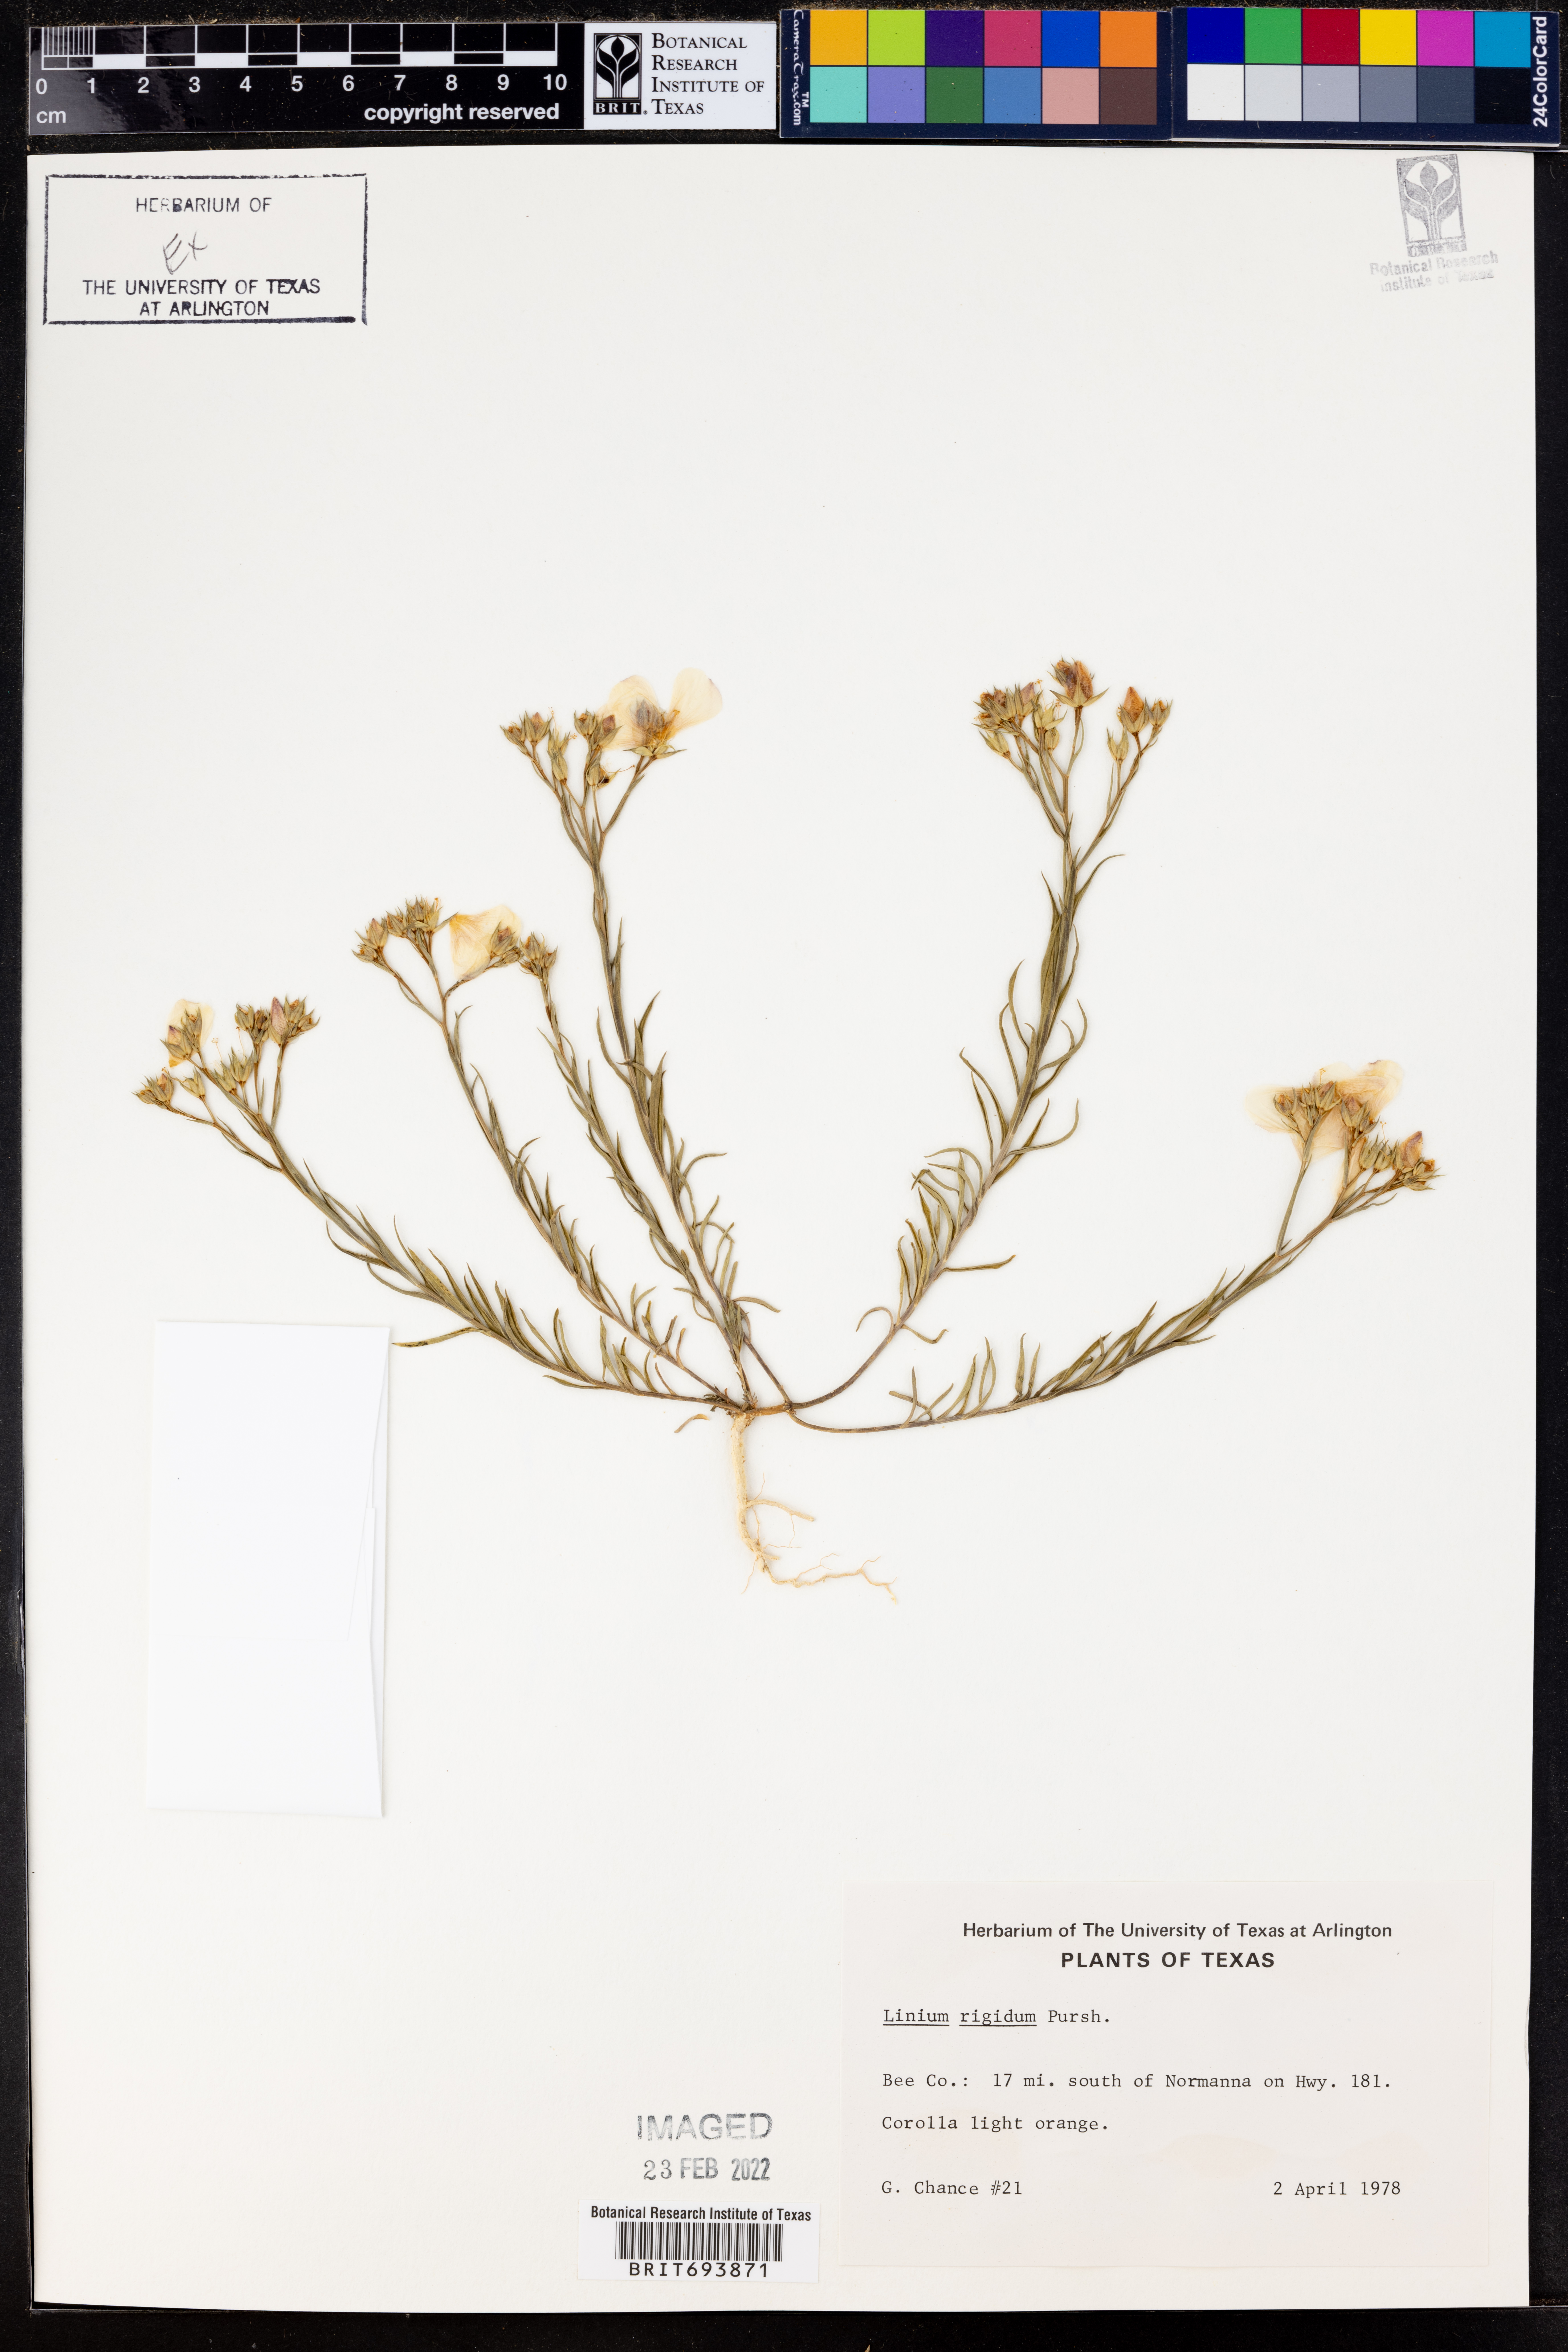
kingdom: Plantae
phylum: Tracheophyta
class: Magnoliopsida
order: Malpighiales
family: Linaceae
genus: Linum
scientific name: Linum rigidum
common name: Stiff-stem flax
